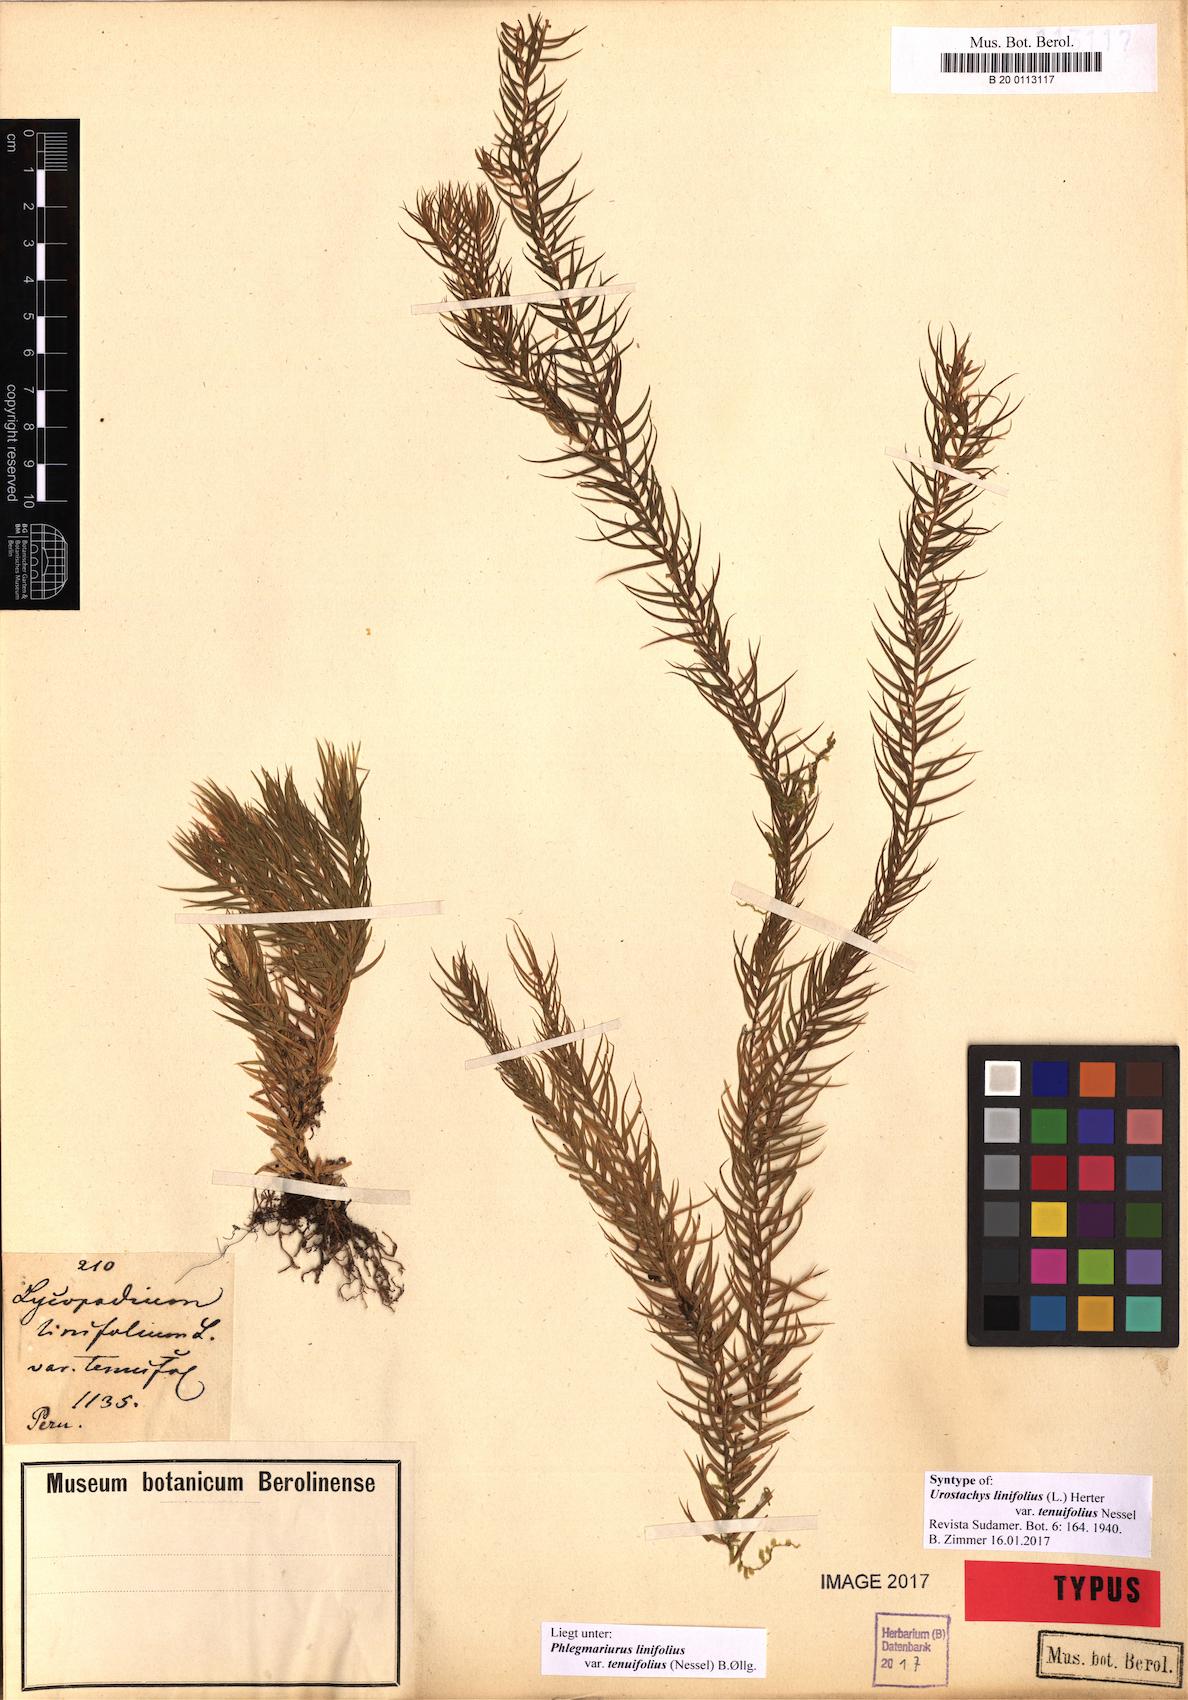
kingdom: Plantae
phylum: Tracheophyta
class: Lycopodiopsida
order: Lycopodiales
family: Lycopodiaceae
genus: Phlegmariurus
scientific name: Phlegmariurus linifolius
